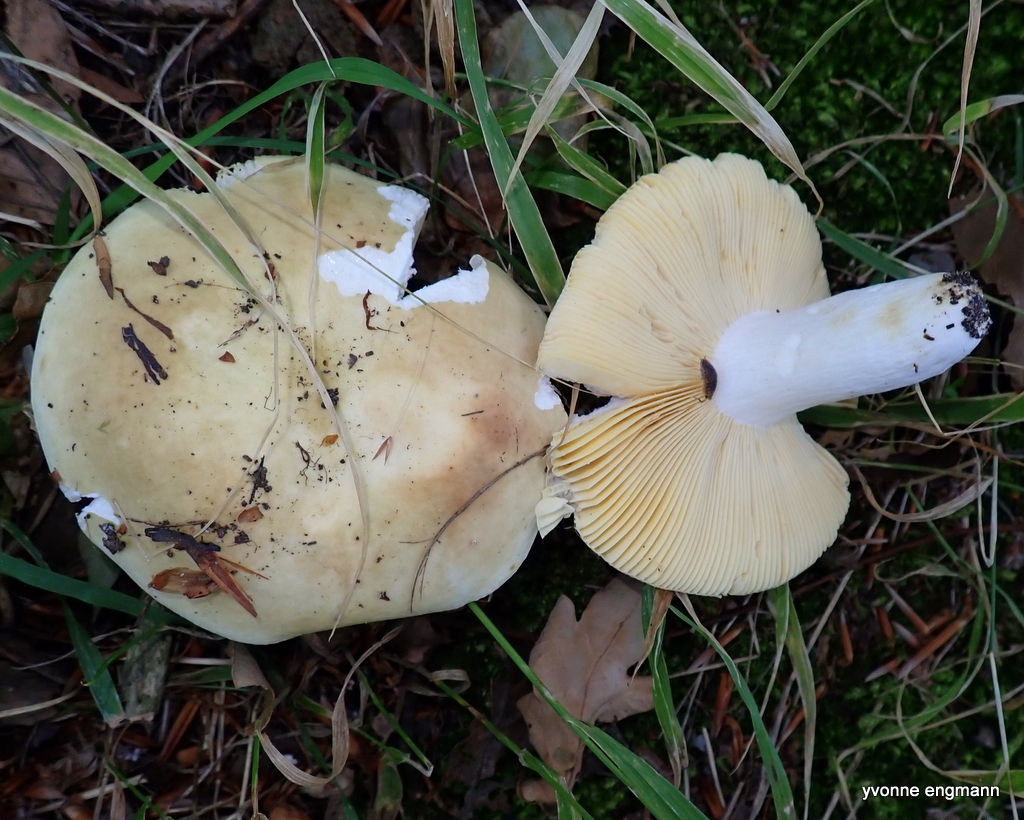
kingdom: Fungi
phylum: Basidiomycota
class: Agaricomycetes
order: Russulales
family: Russulaceae
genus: Russula
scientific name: Russula
